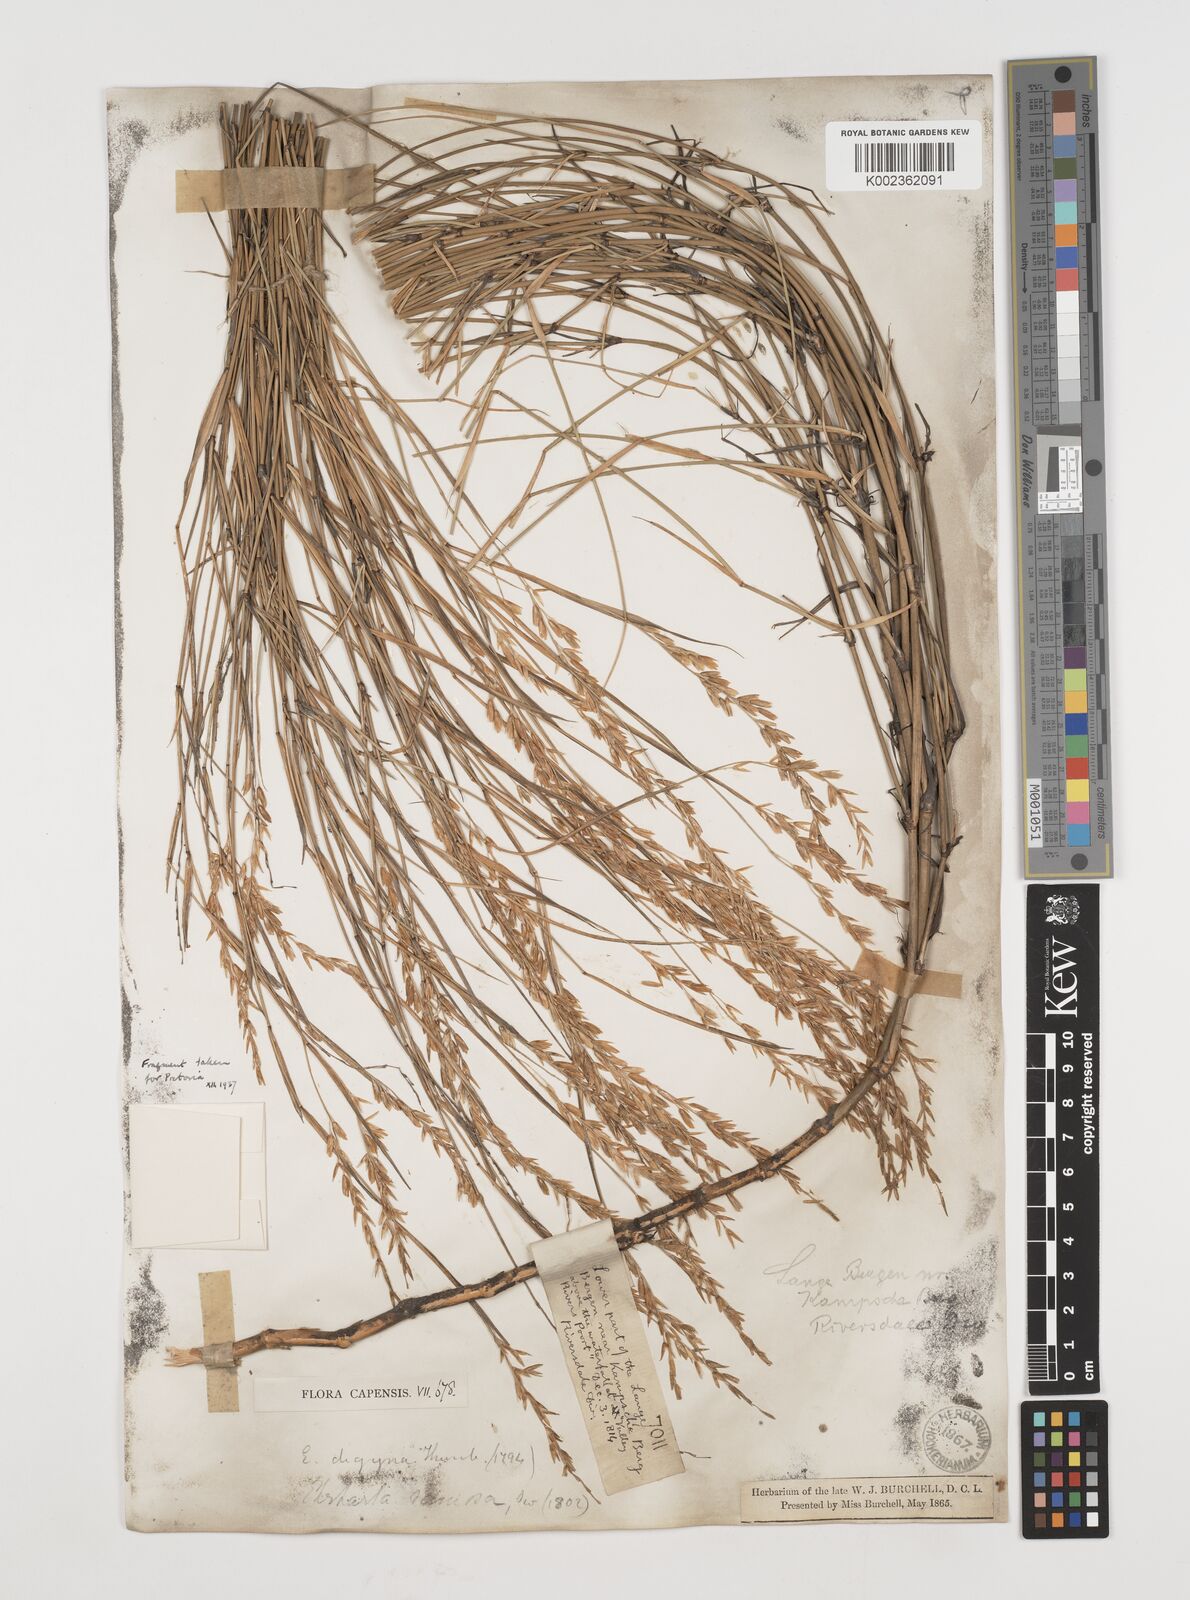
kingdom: Plantae
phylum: Tracheophyta
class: Liliopsida
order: Poales
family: Poaceae
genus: Ehrharta
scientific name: Ehrharta digyna
